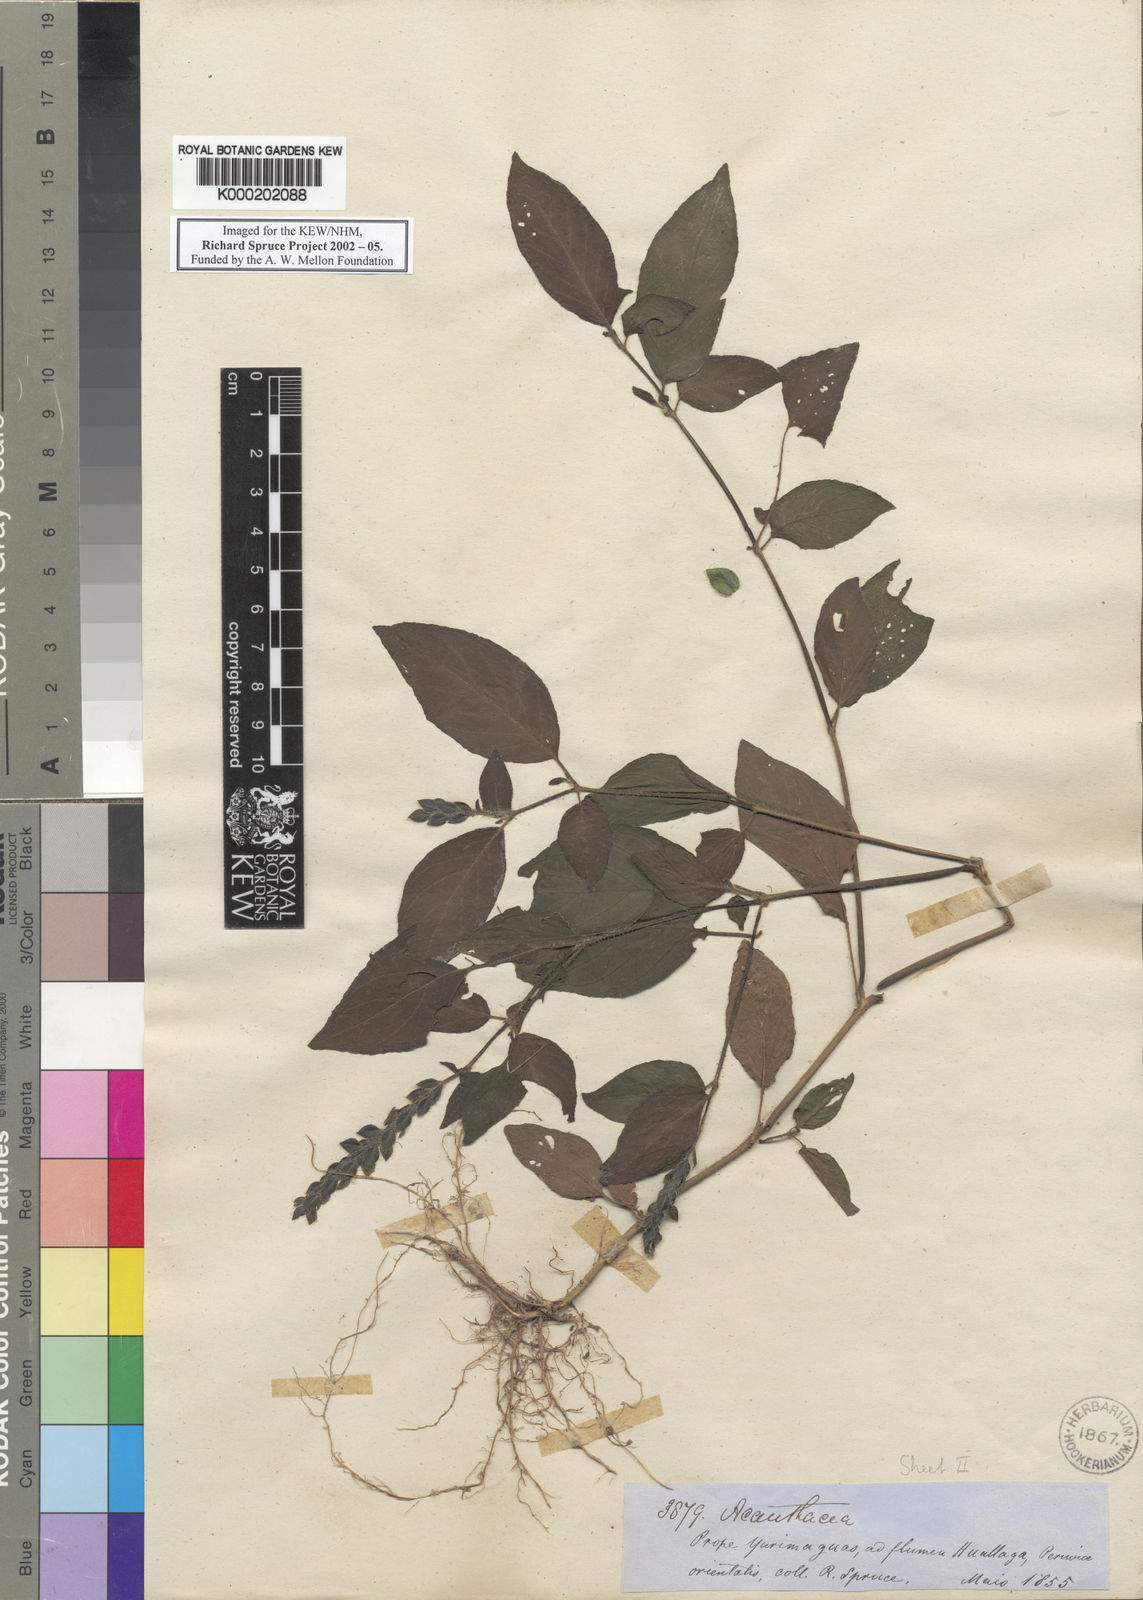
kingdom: Plantae
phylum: Tracheophyta
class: Magnoliopsida
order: Lamiales
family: Acanthaceae
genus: Justicia
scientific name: Justicia yurimaguensis
